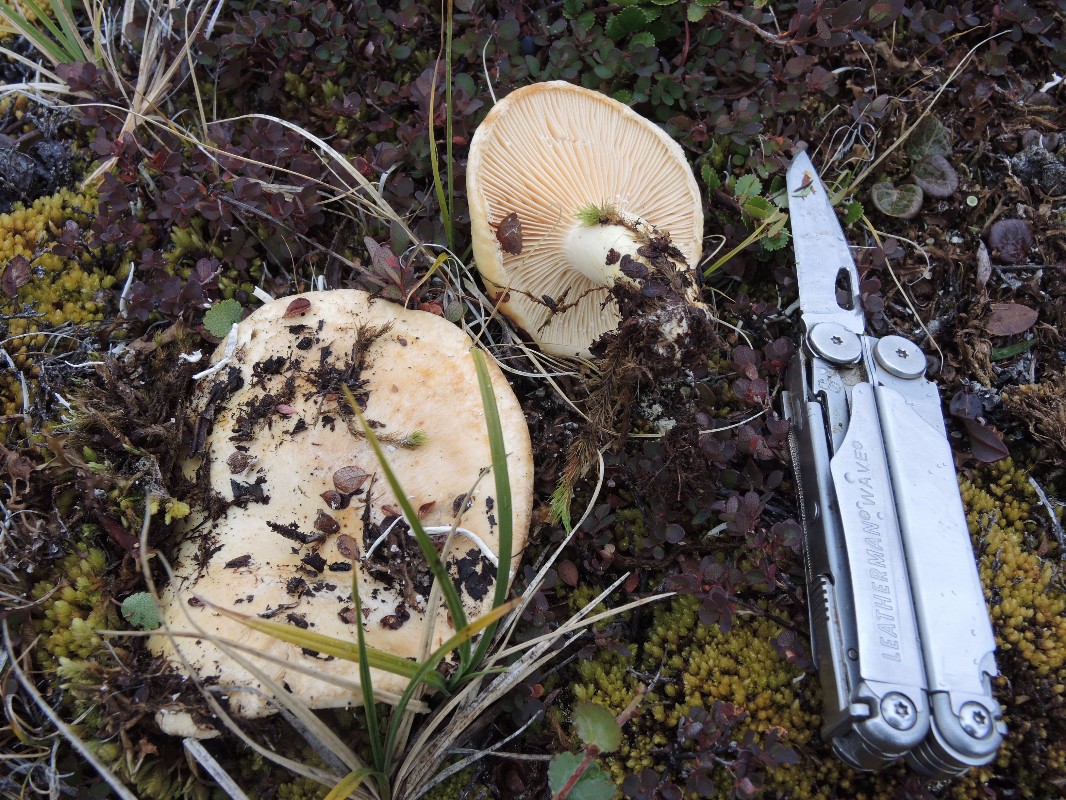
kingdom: Fungi
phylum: Basidiomycota
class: Agaricomycetes
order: Russulales
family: Russulaceae
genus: Lactarius
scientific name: Lactarius dryadophilus
